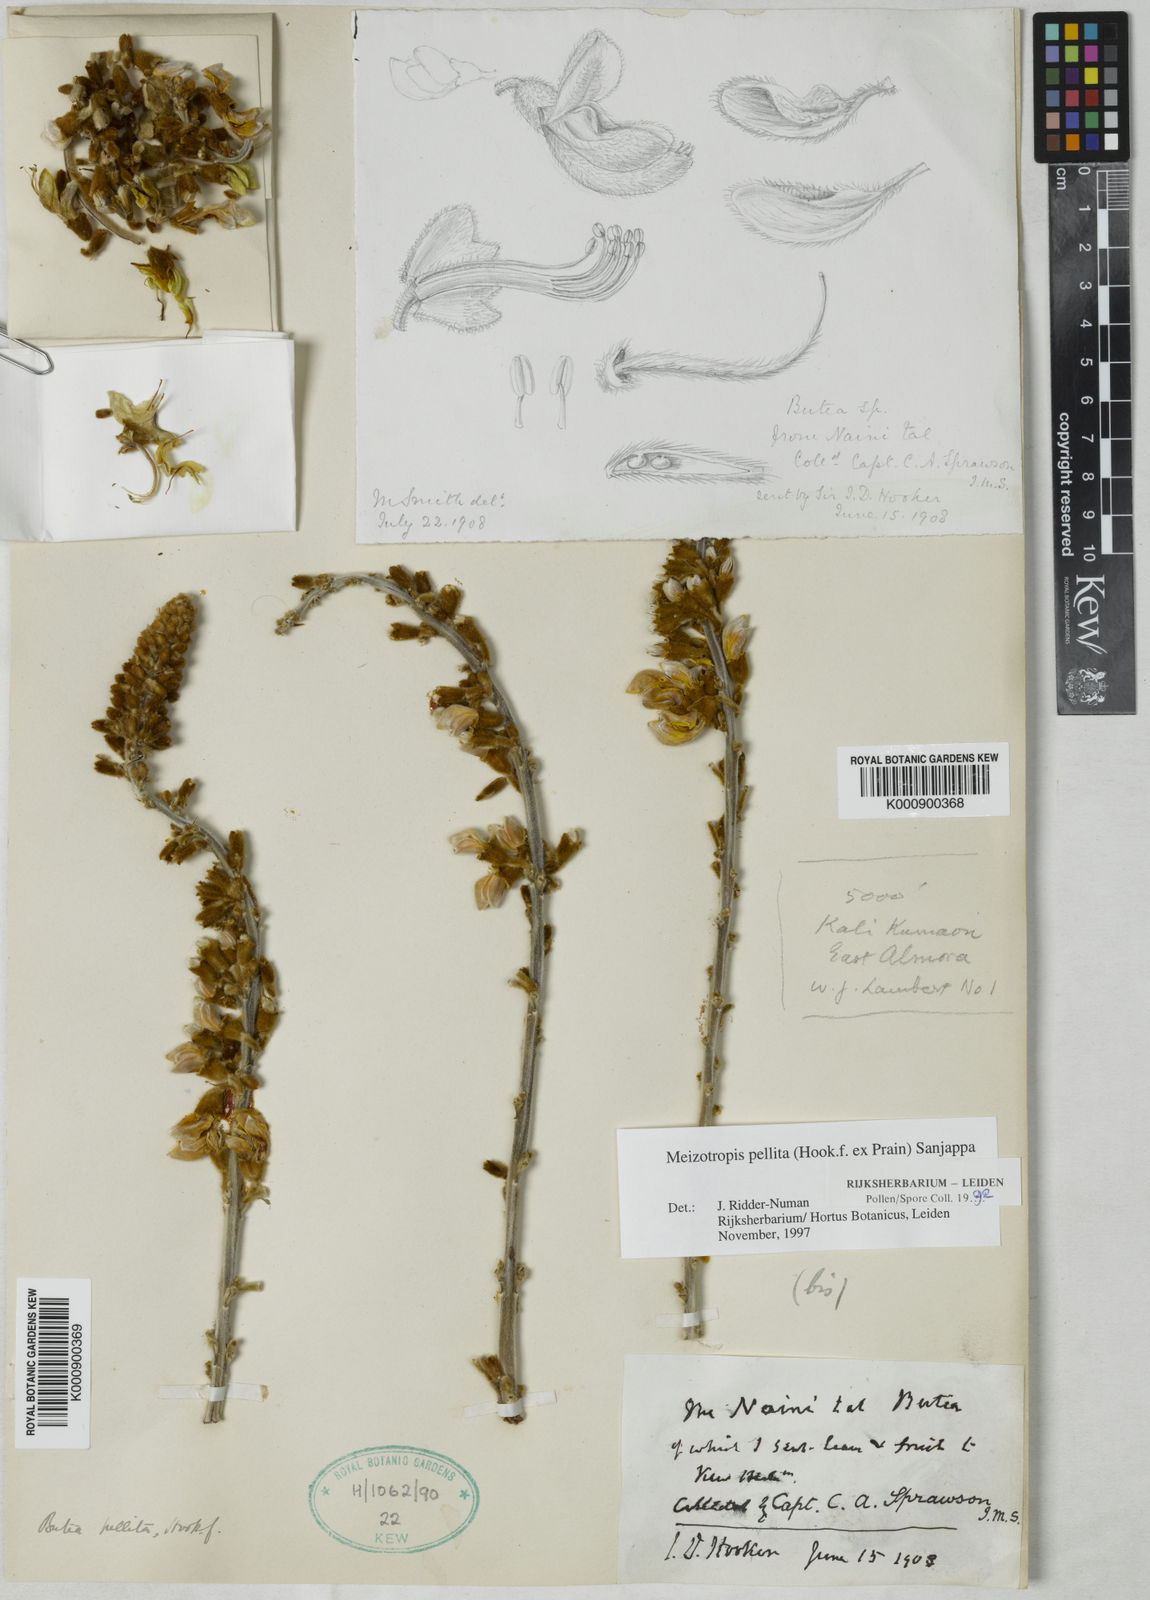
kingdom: Plantae
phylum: Tracheophyta
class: Magnoliopsida
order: Fabales
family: Fabaceae
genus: Paracalyx
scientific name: Paracalyx
